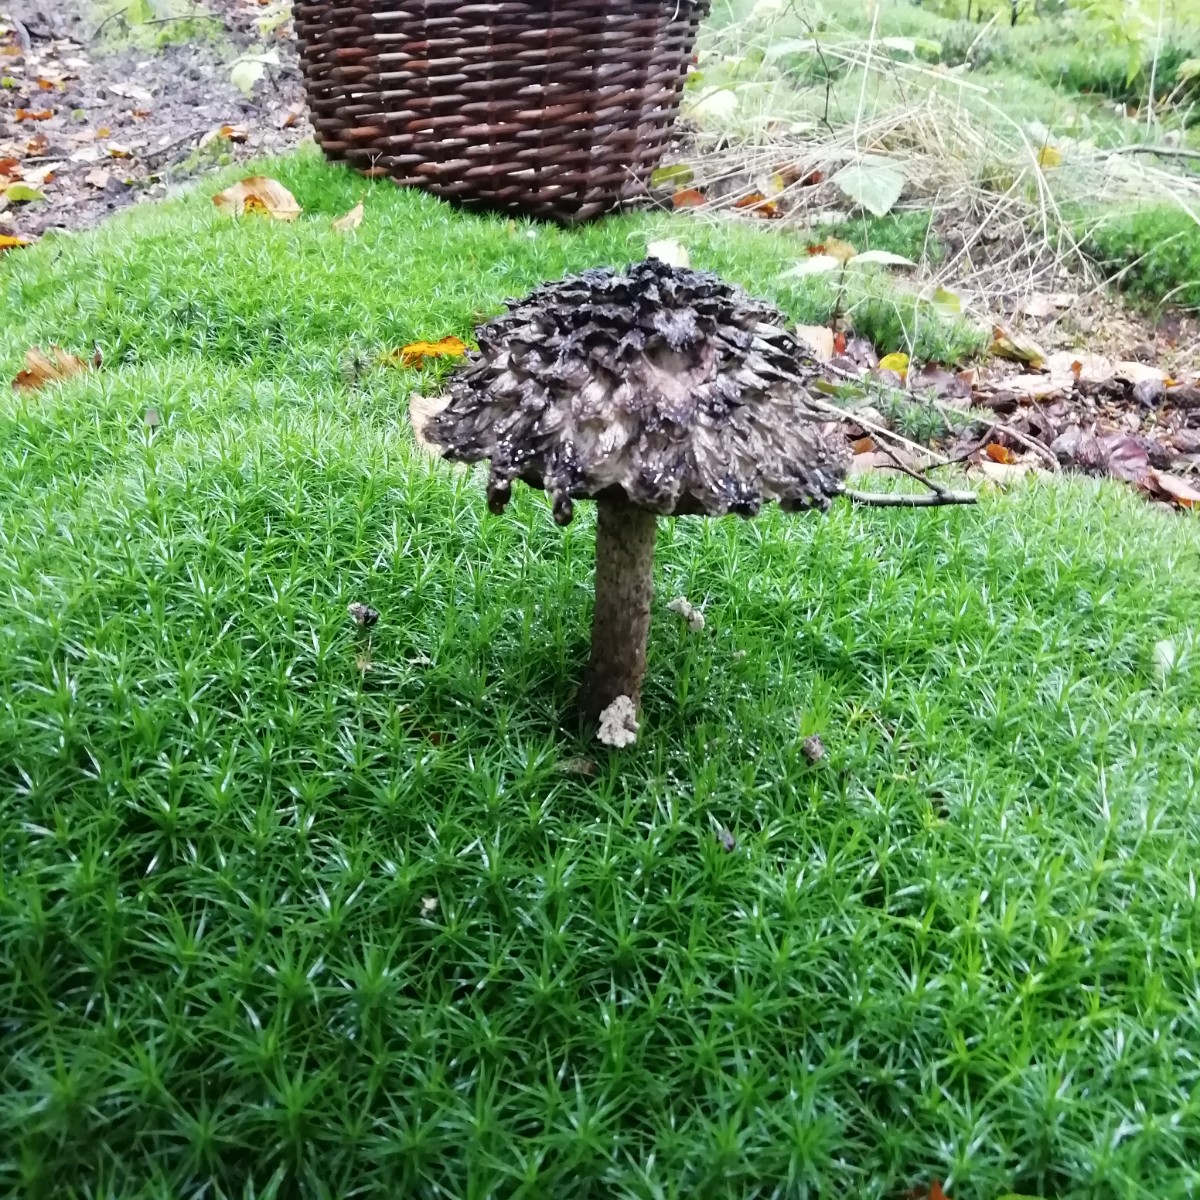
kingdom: Fungi
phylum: Basidiomycota
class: Agaricomycetes
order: Boletales
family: Boletaceae
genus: Strobilomyces
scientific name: Strobilomyces strobilaceus
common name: koglerørhat
